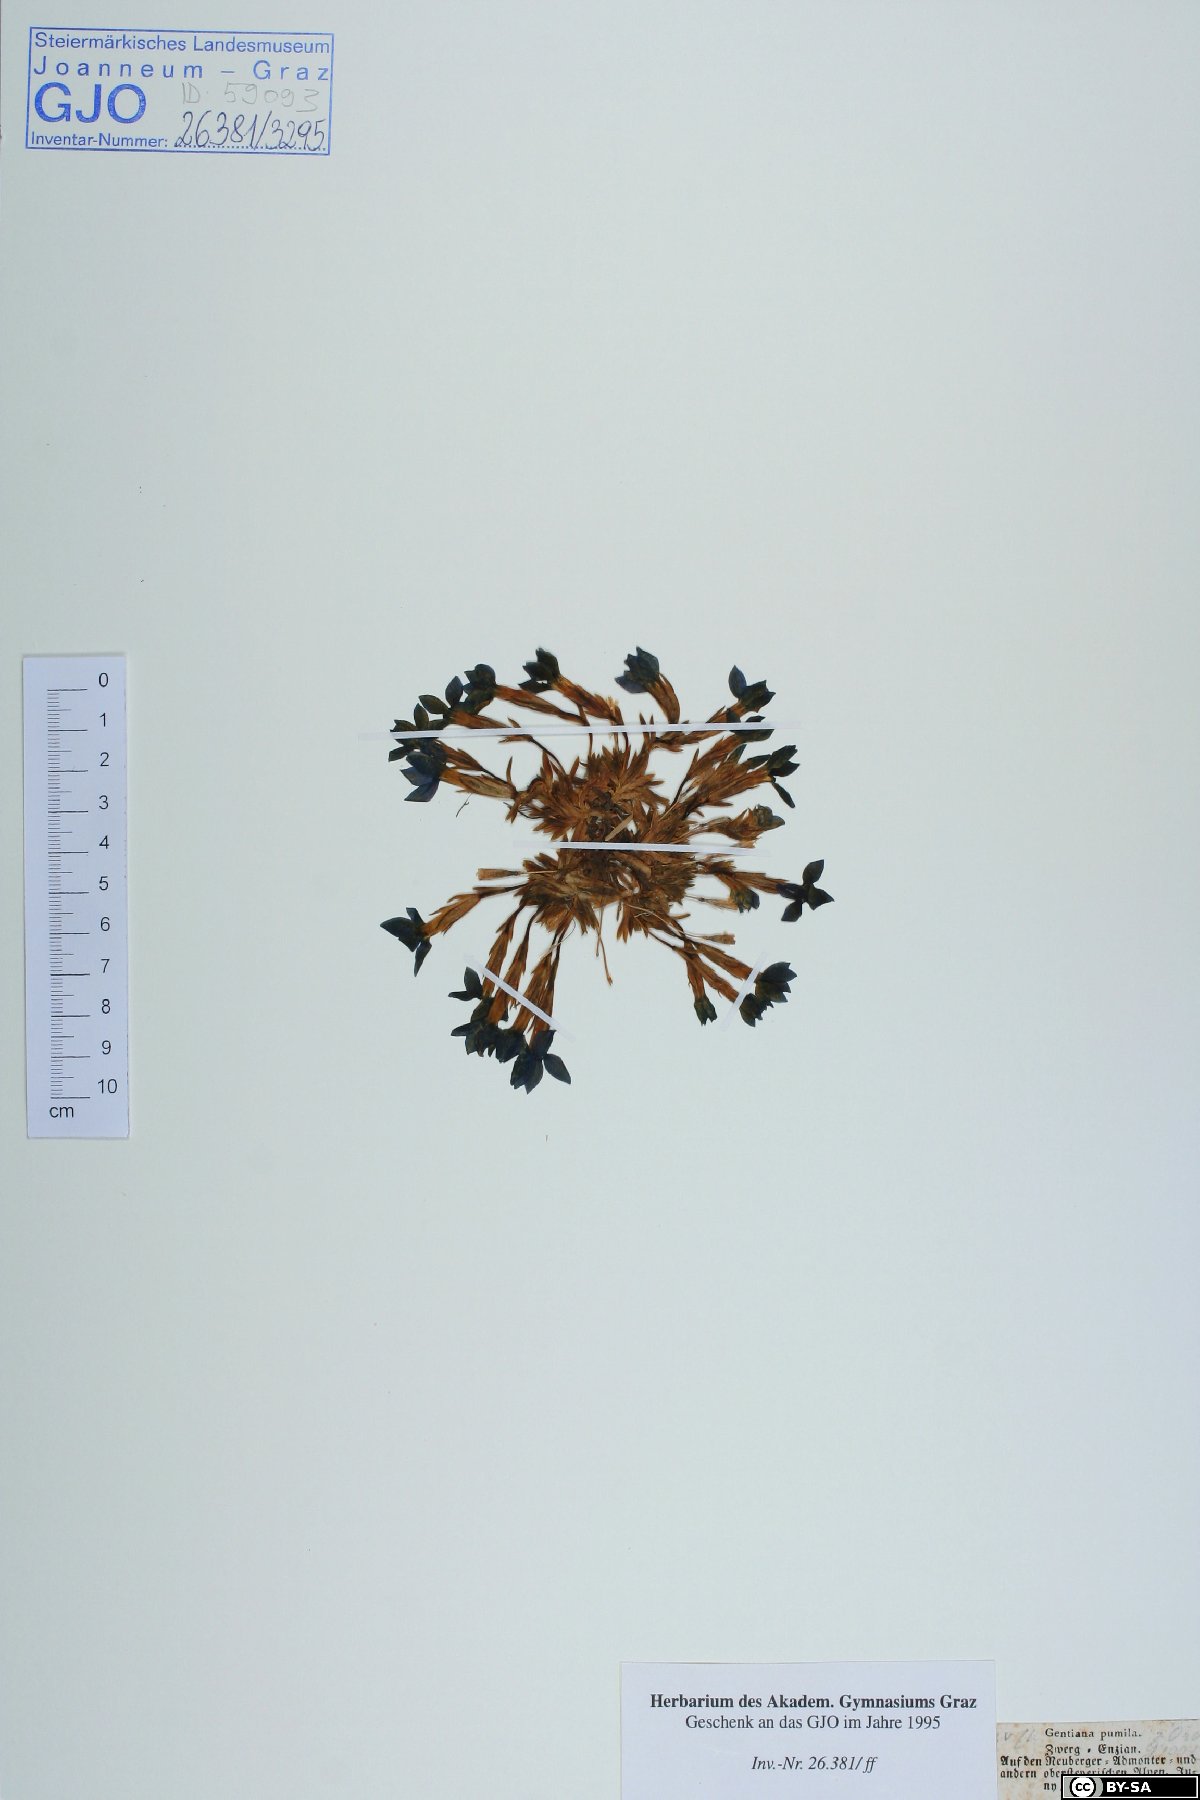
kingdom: Plantae
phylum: Tracheophyta
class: Magnoliopsida
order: Gentianales
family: Gentianaceae
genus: Gentiana
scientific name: Gentiana pumila
